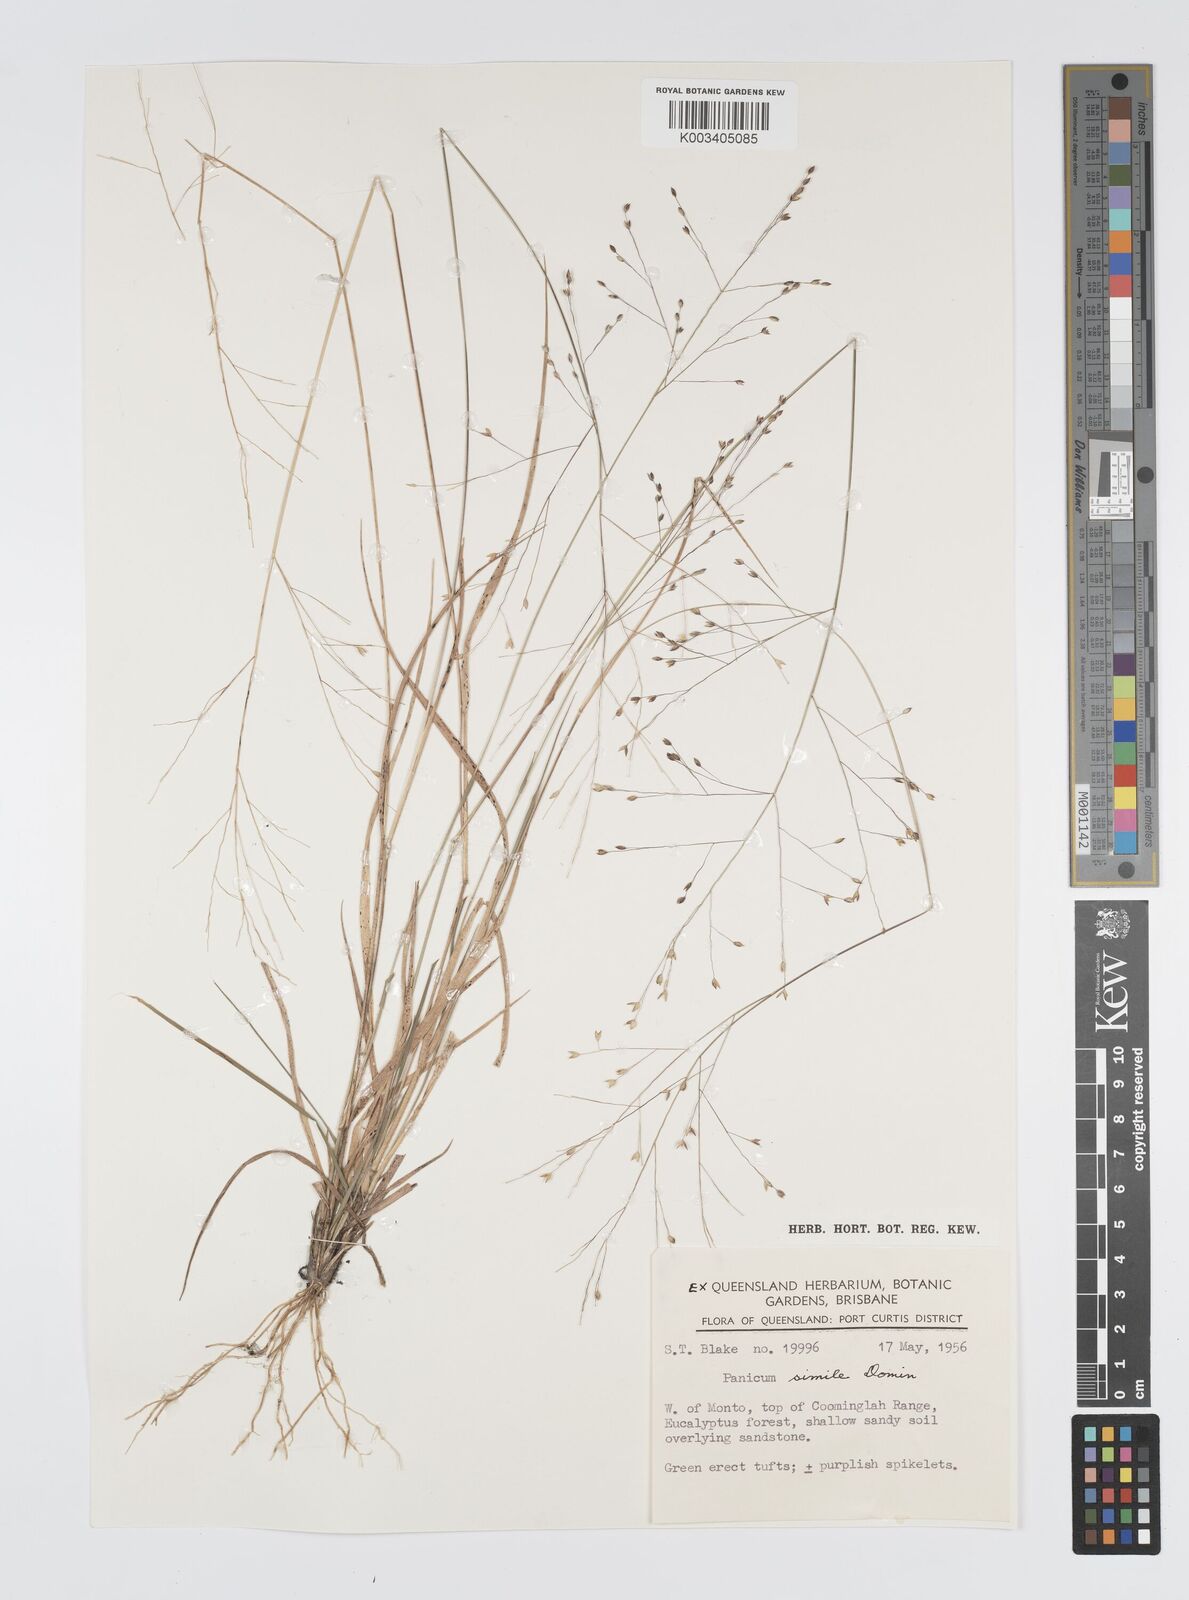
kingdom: Plantae
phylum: Tracheophyta
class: Liliopsida
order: Poales
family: Poaceae
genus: Panicum
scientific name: Panicum simile
